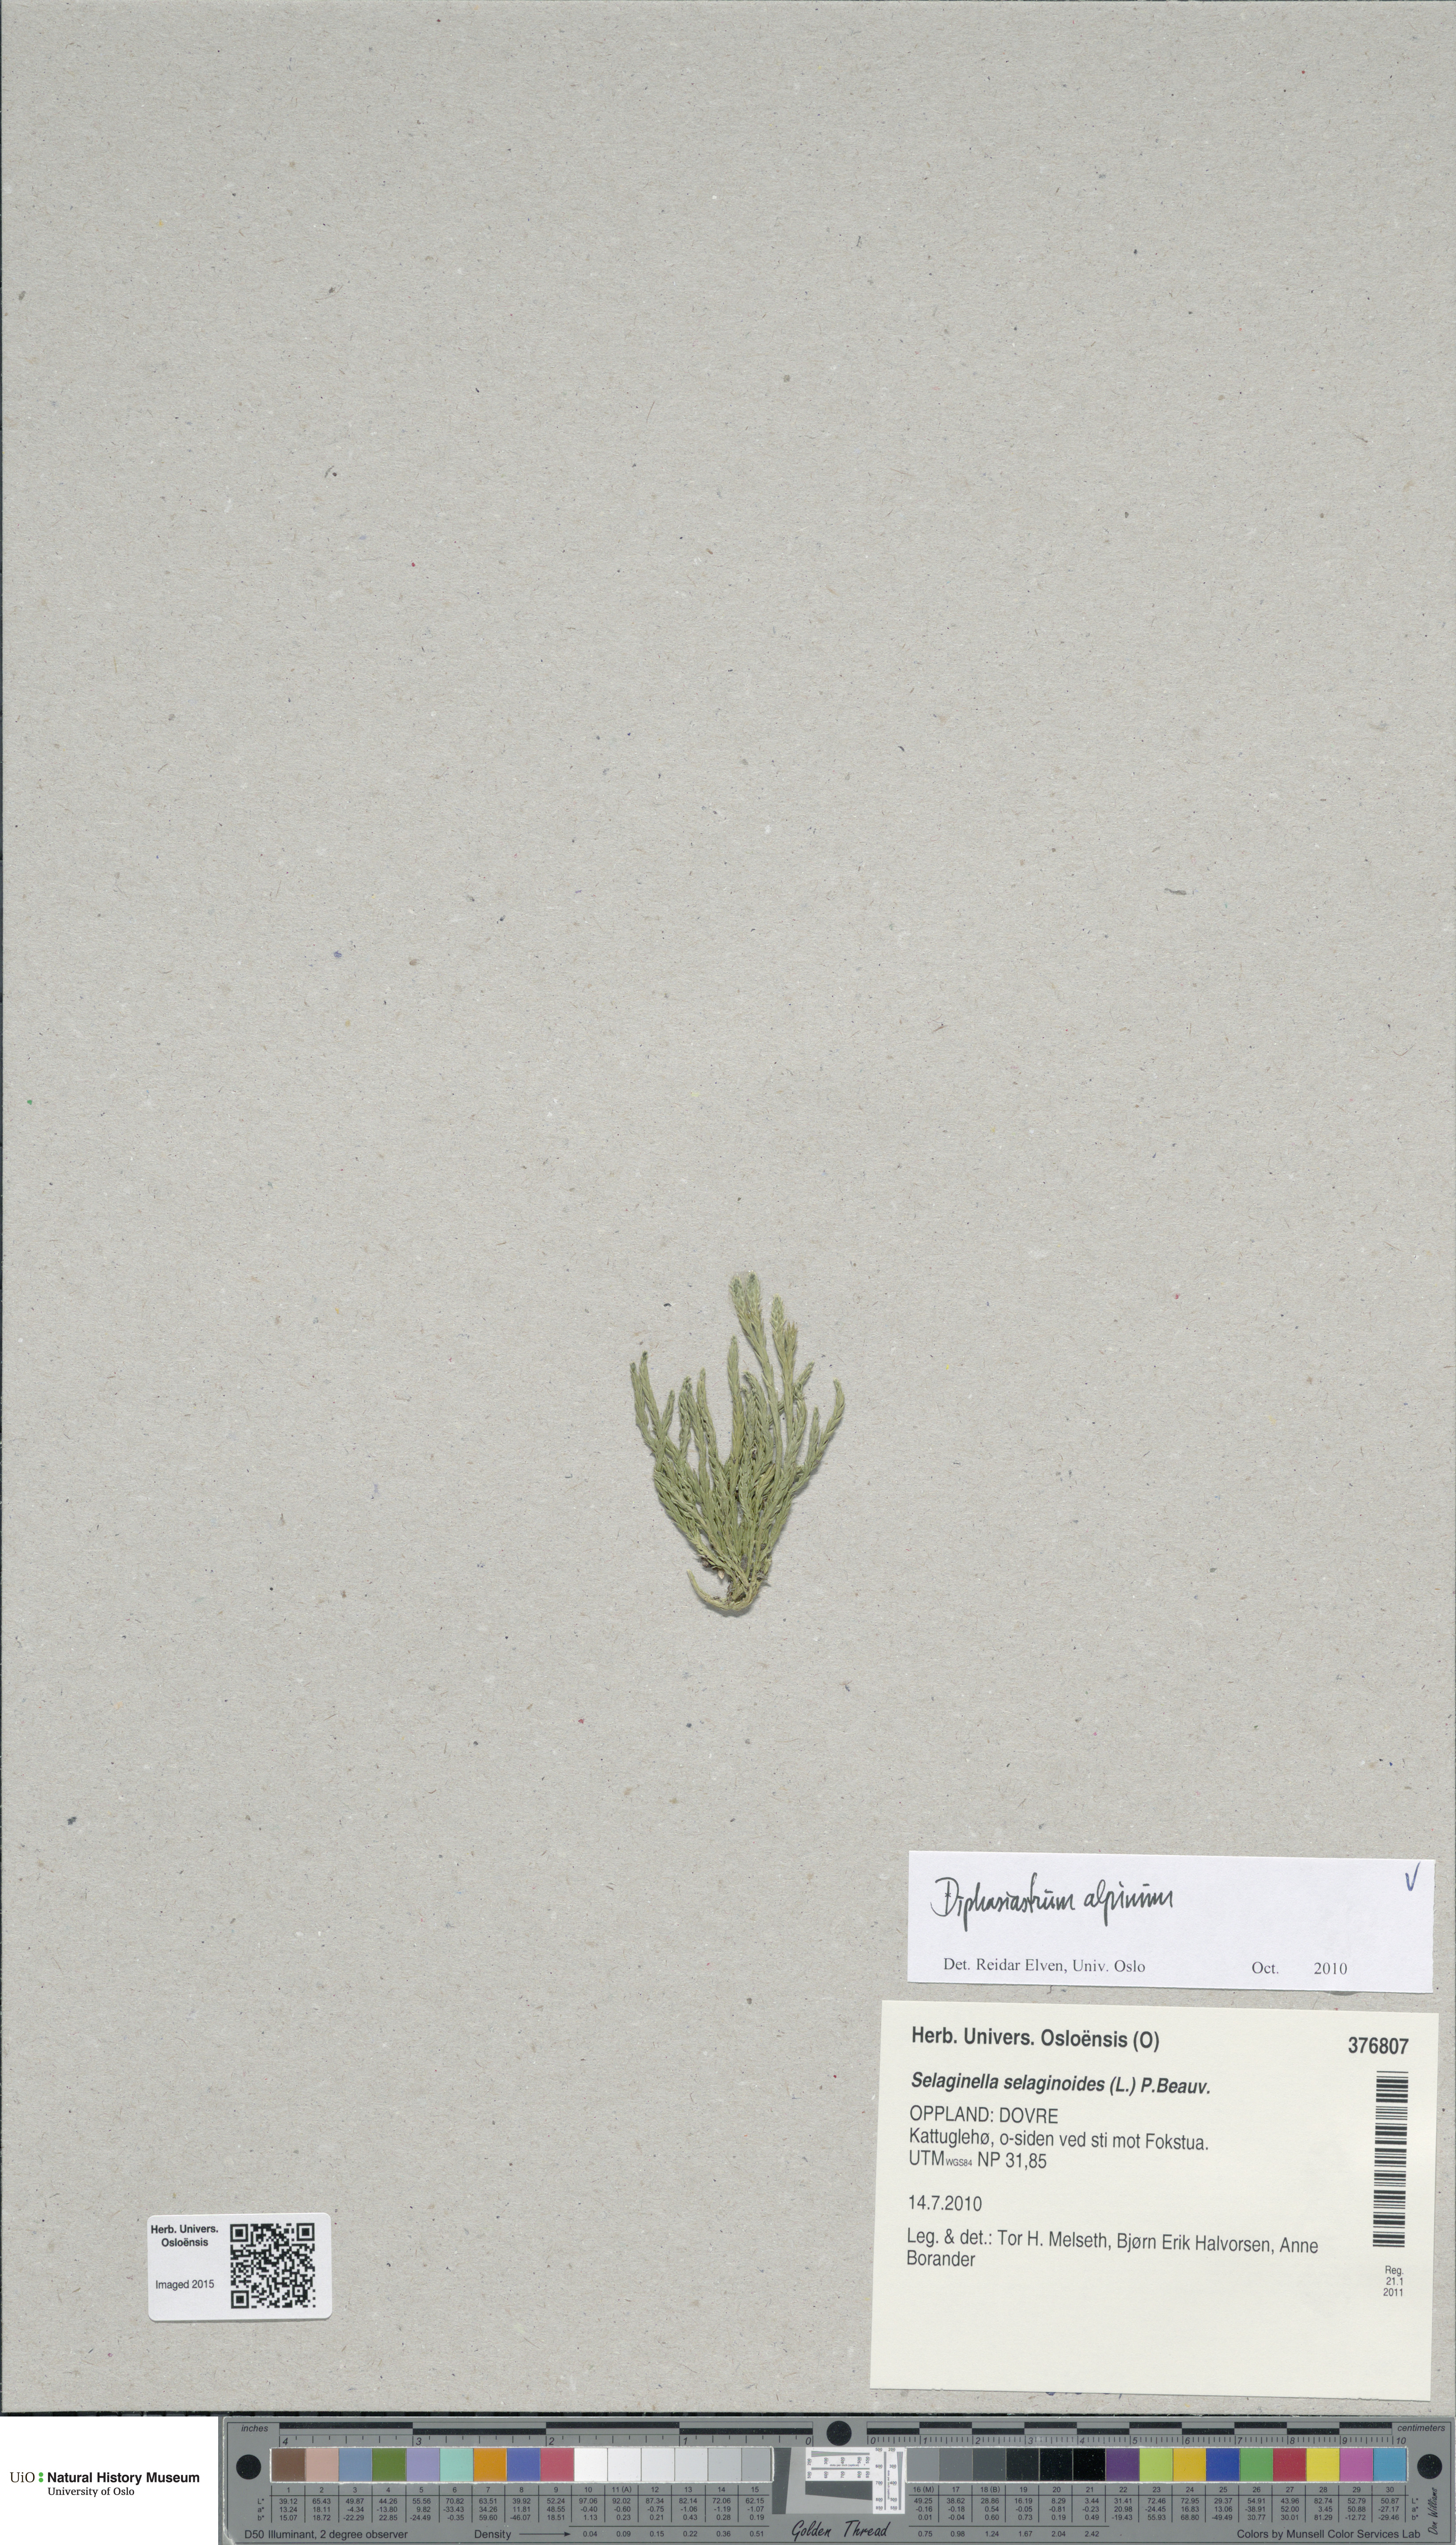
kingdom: Plantae
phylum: Tracheophyta
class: Lycopodiopsida
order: Lycopodiales
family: Lycopodiaceae
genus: Diphasiastrum
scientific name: Diphasiastrum alpinum
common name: Alpine clubmoss
